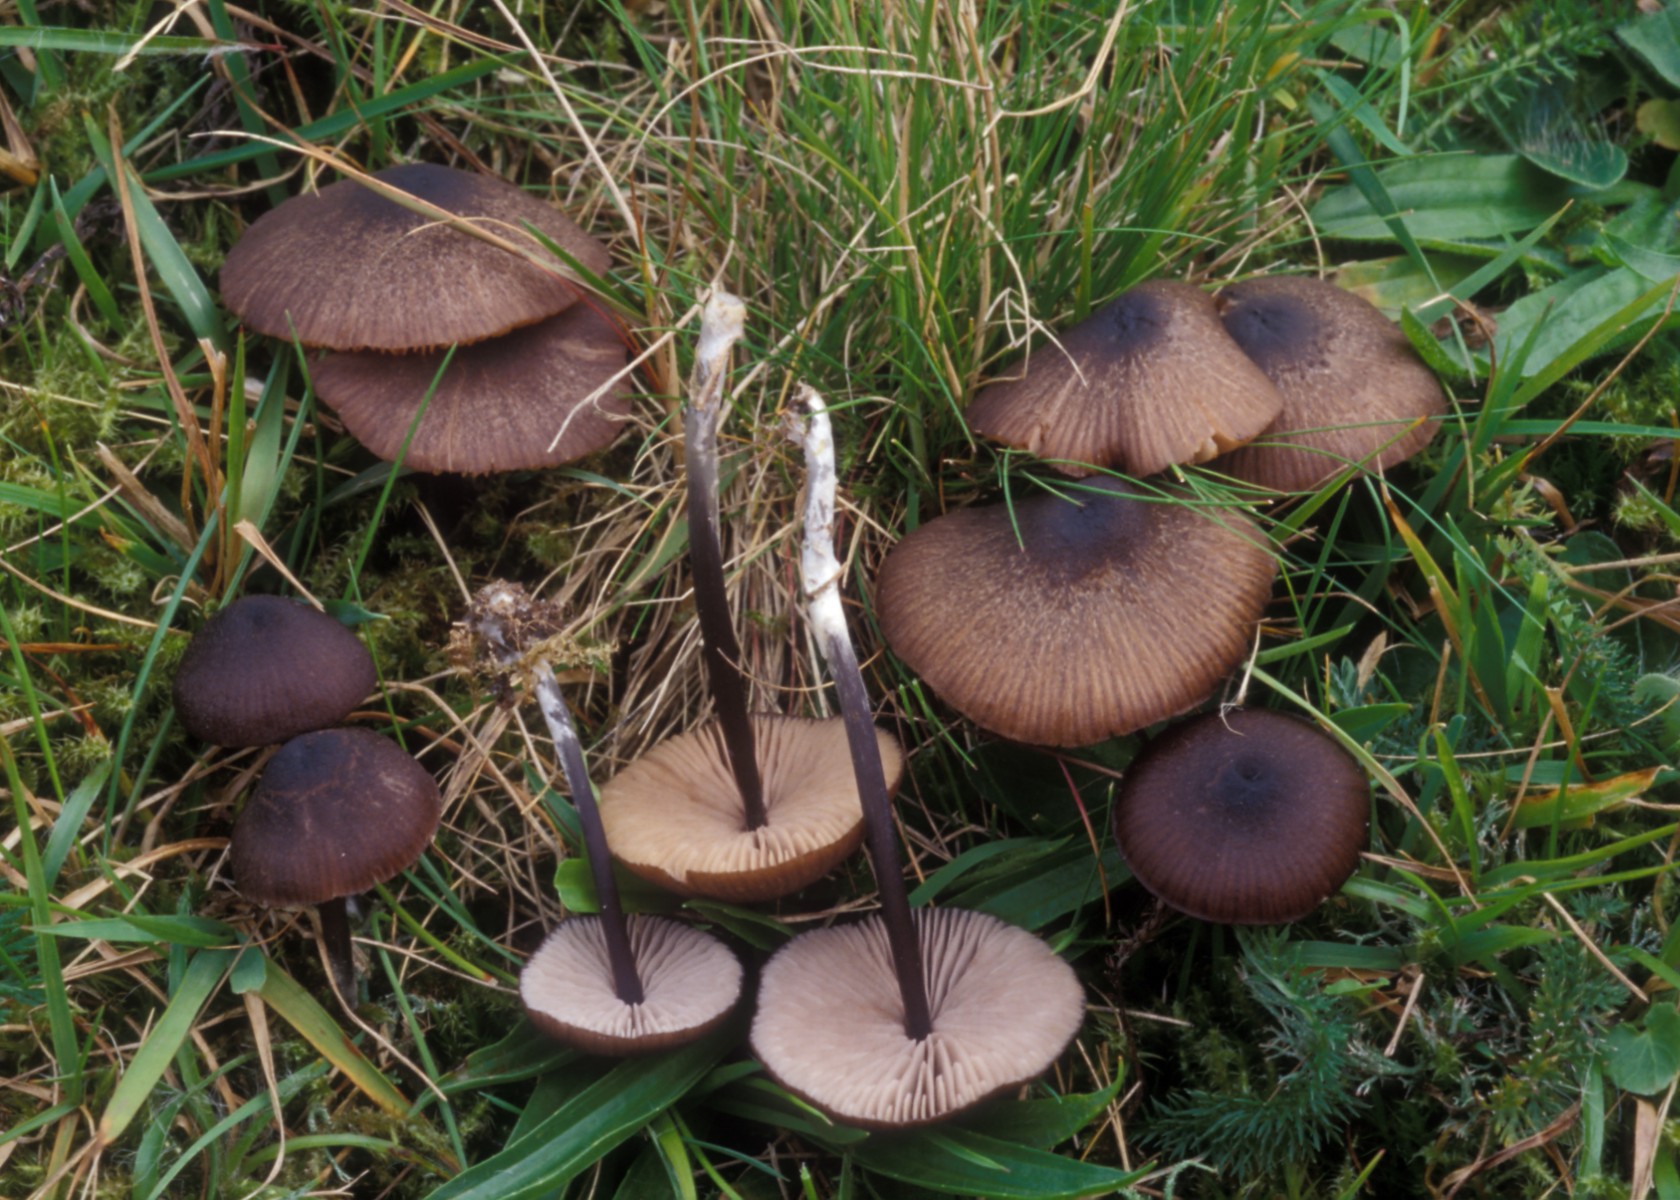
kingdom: Fungi
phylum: Basidiomycota
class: Agaricomycetes
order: Agaricales
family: Entolomataceae
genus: Entoloma
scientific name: Entoloma poliopus
